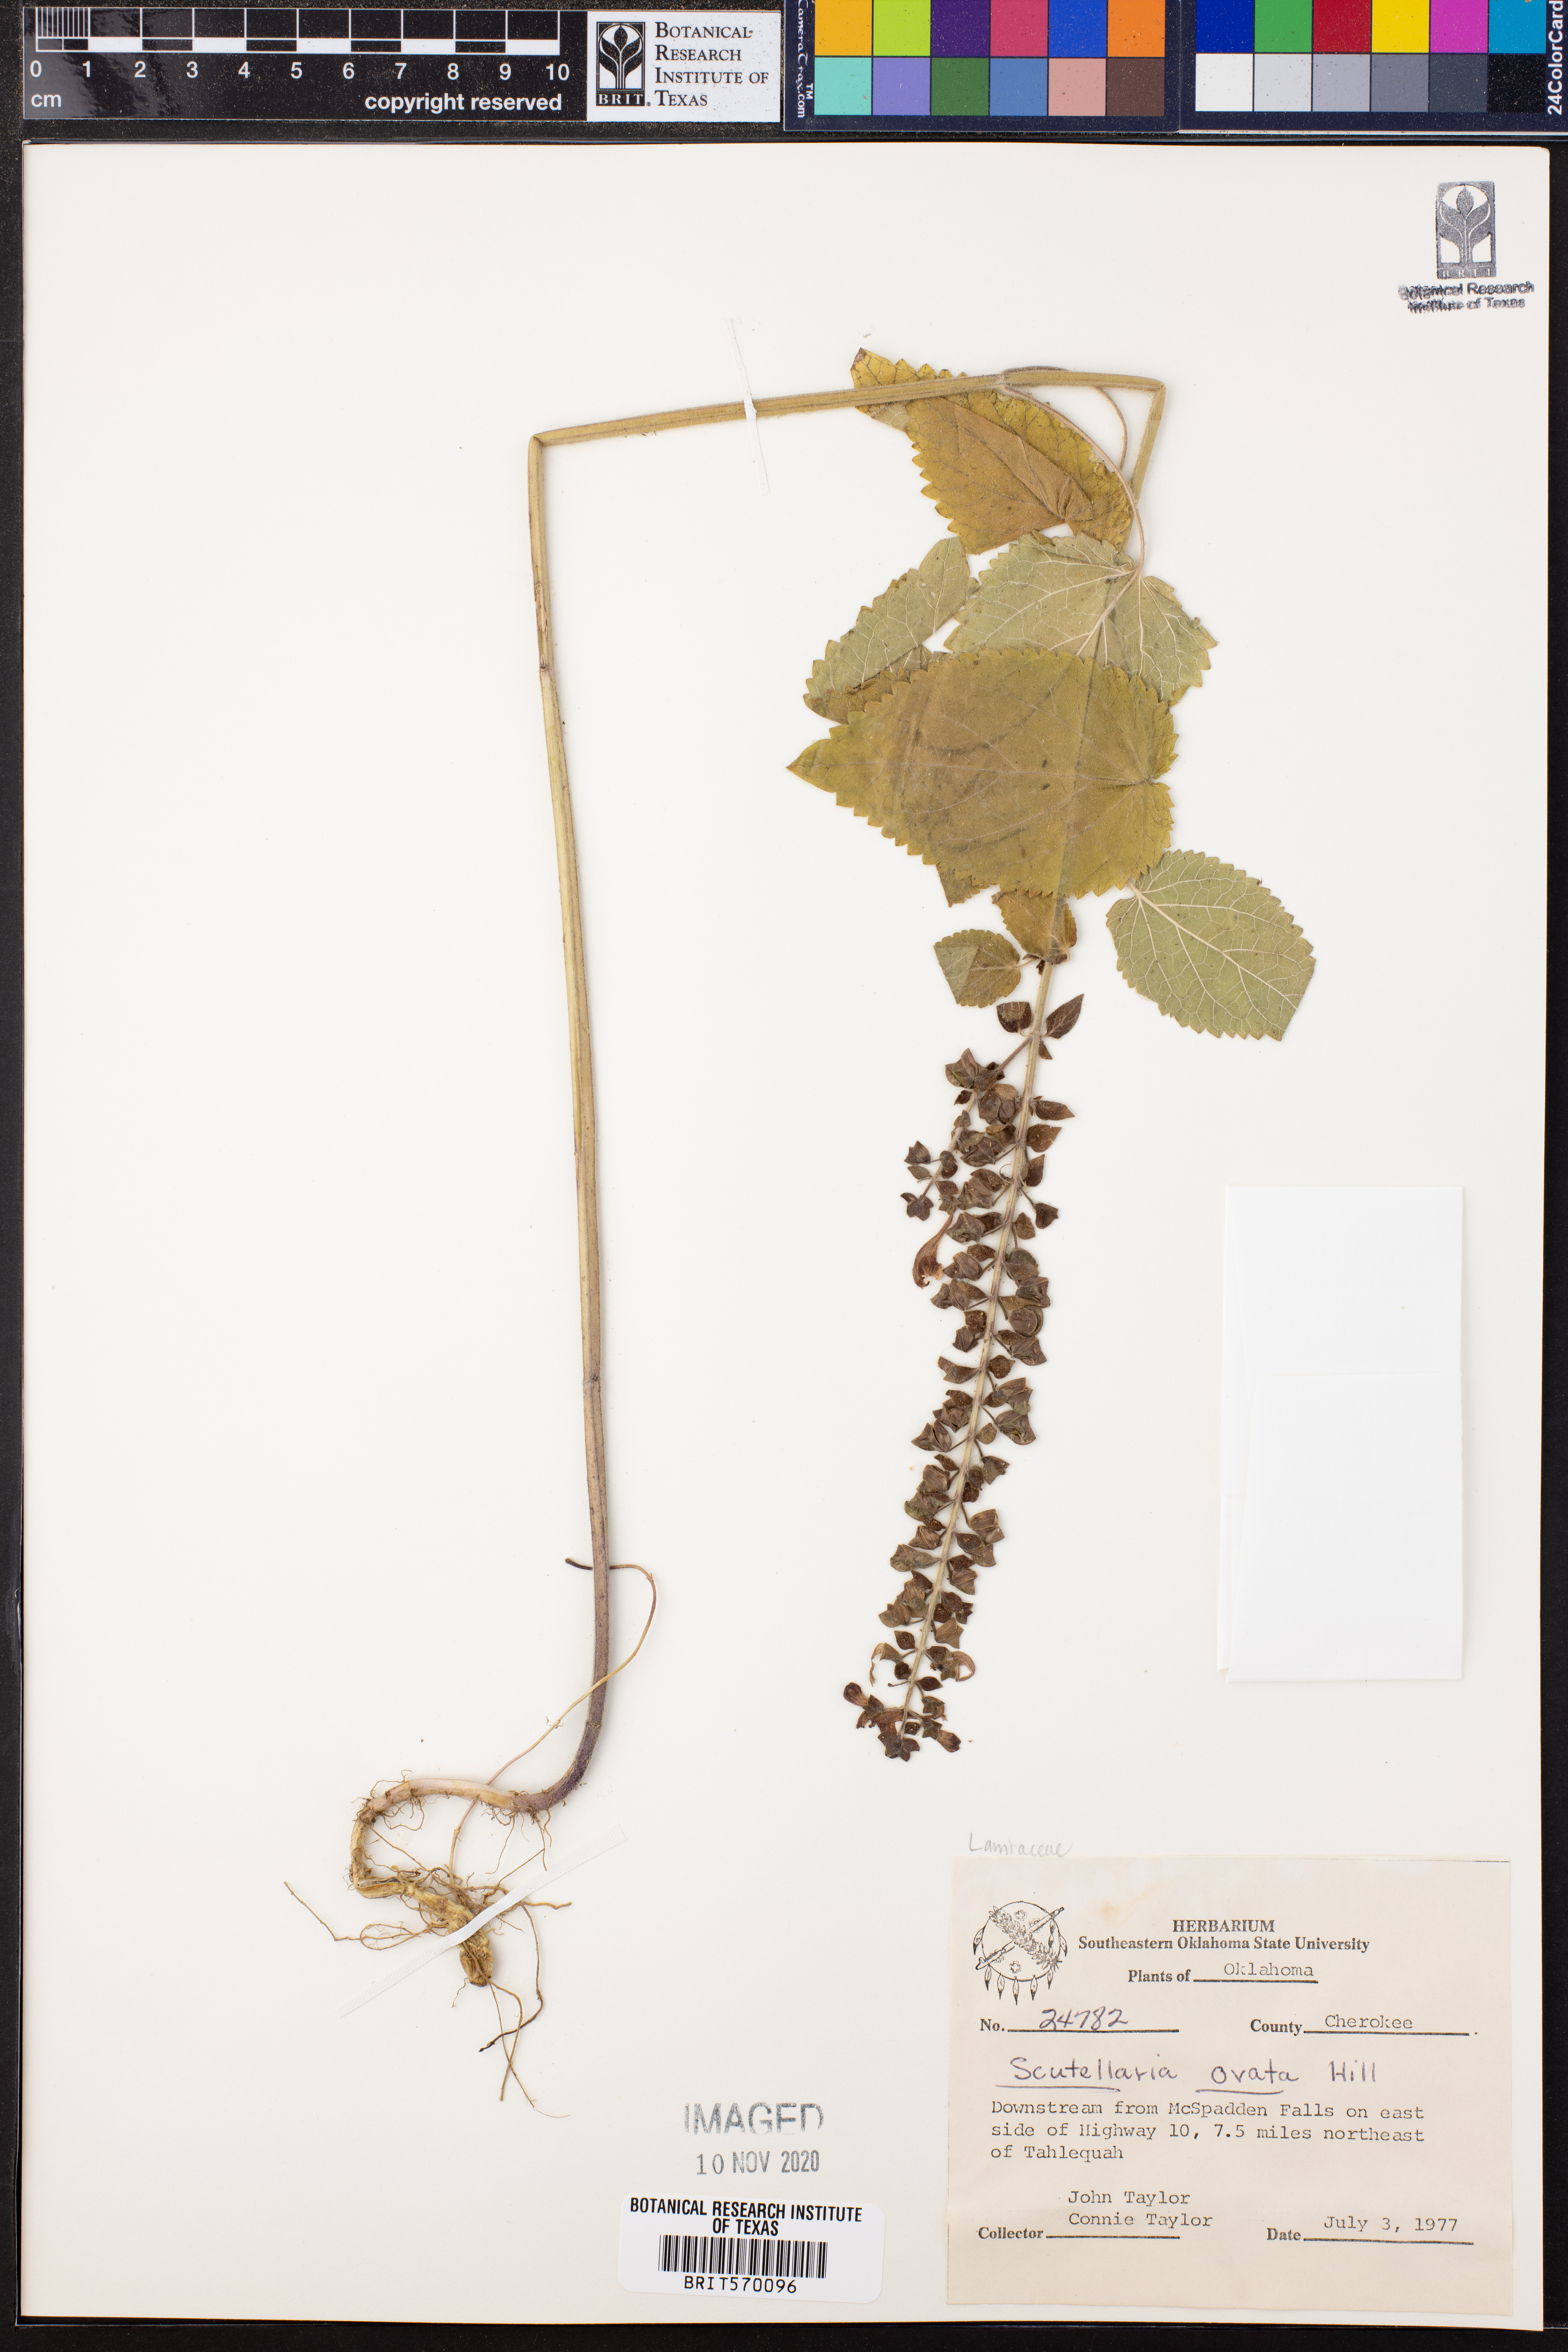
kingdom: Plantae
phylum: Tracheophyta
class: Magnoliopsida
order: Lamiales
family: Lamiaceae
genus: Scutellaria
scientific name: Scutellaria ovata
